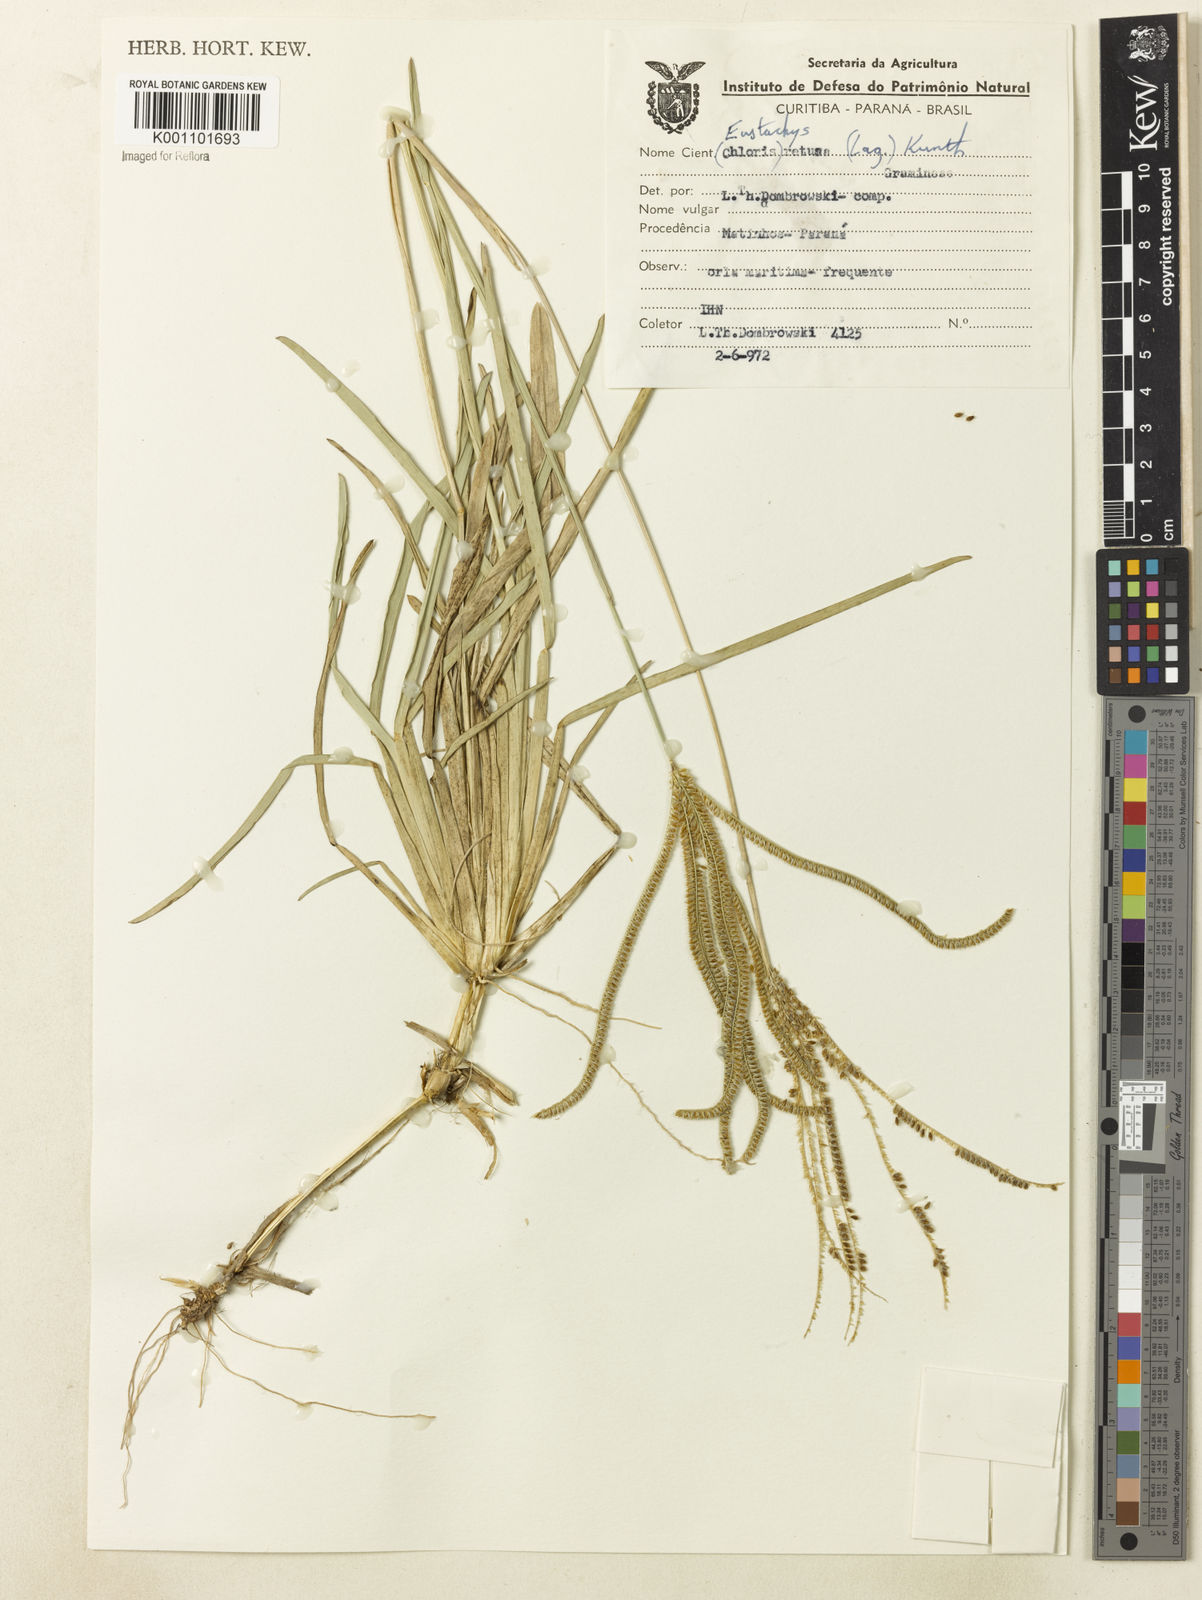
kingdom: Plantae
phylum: Tracheophyta
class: Liliopsida
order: Poales
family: Poaceae
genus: Eustachys
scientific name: Eustachys retusa
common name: Argentine fingergrass
